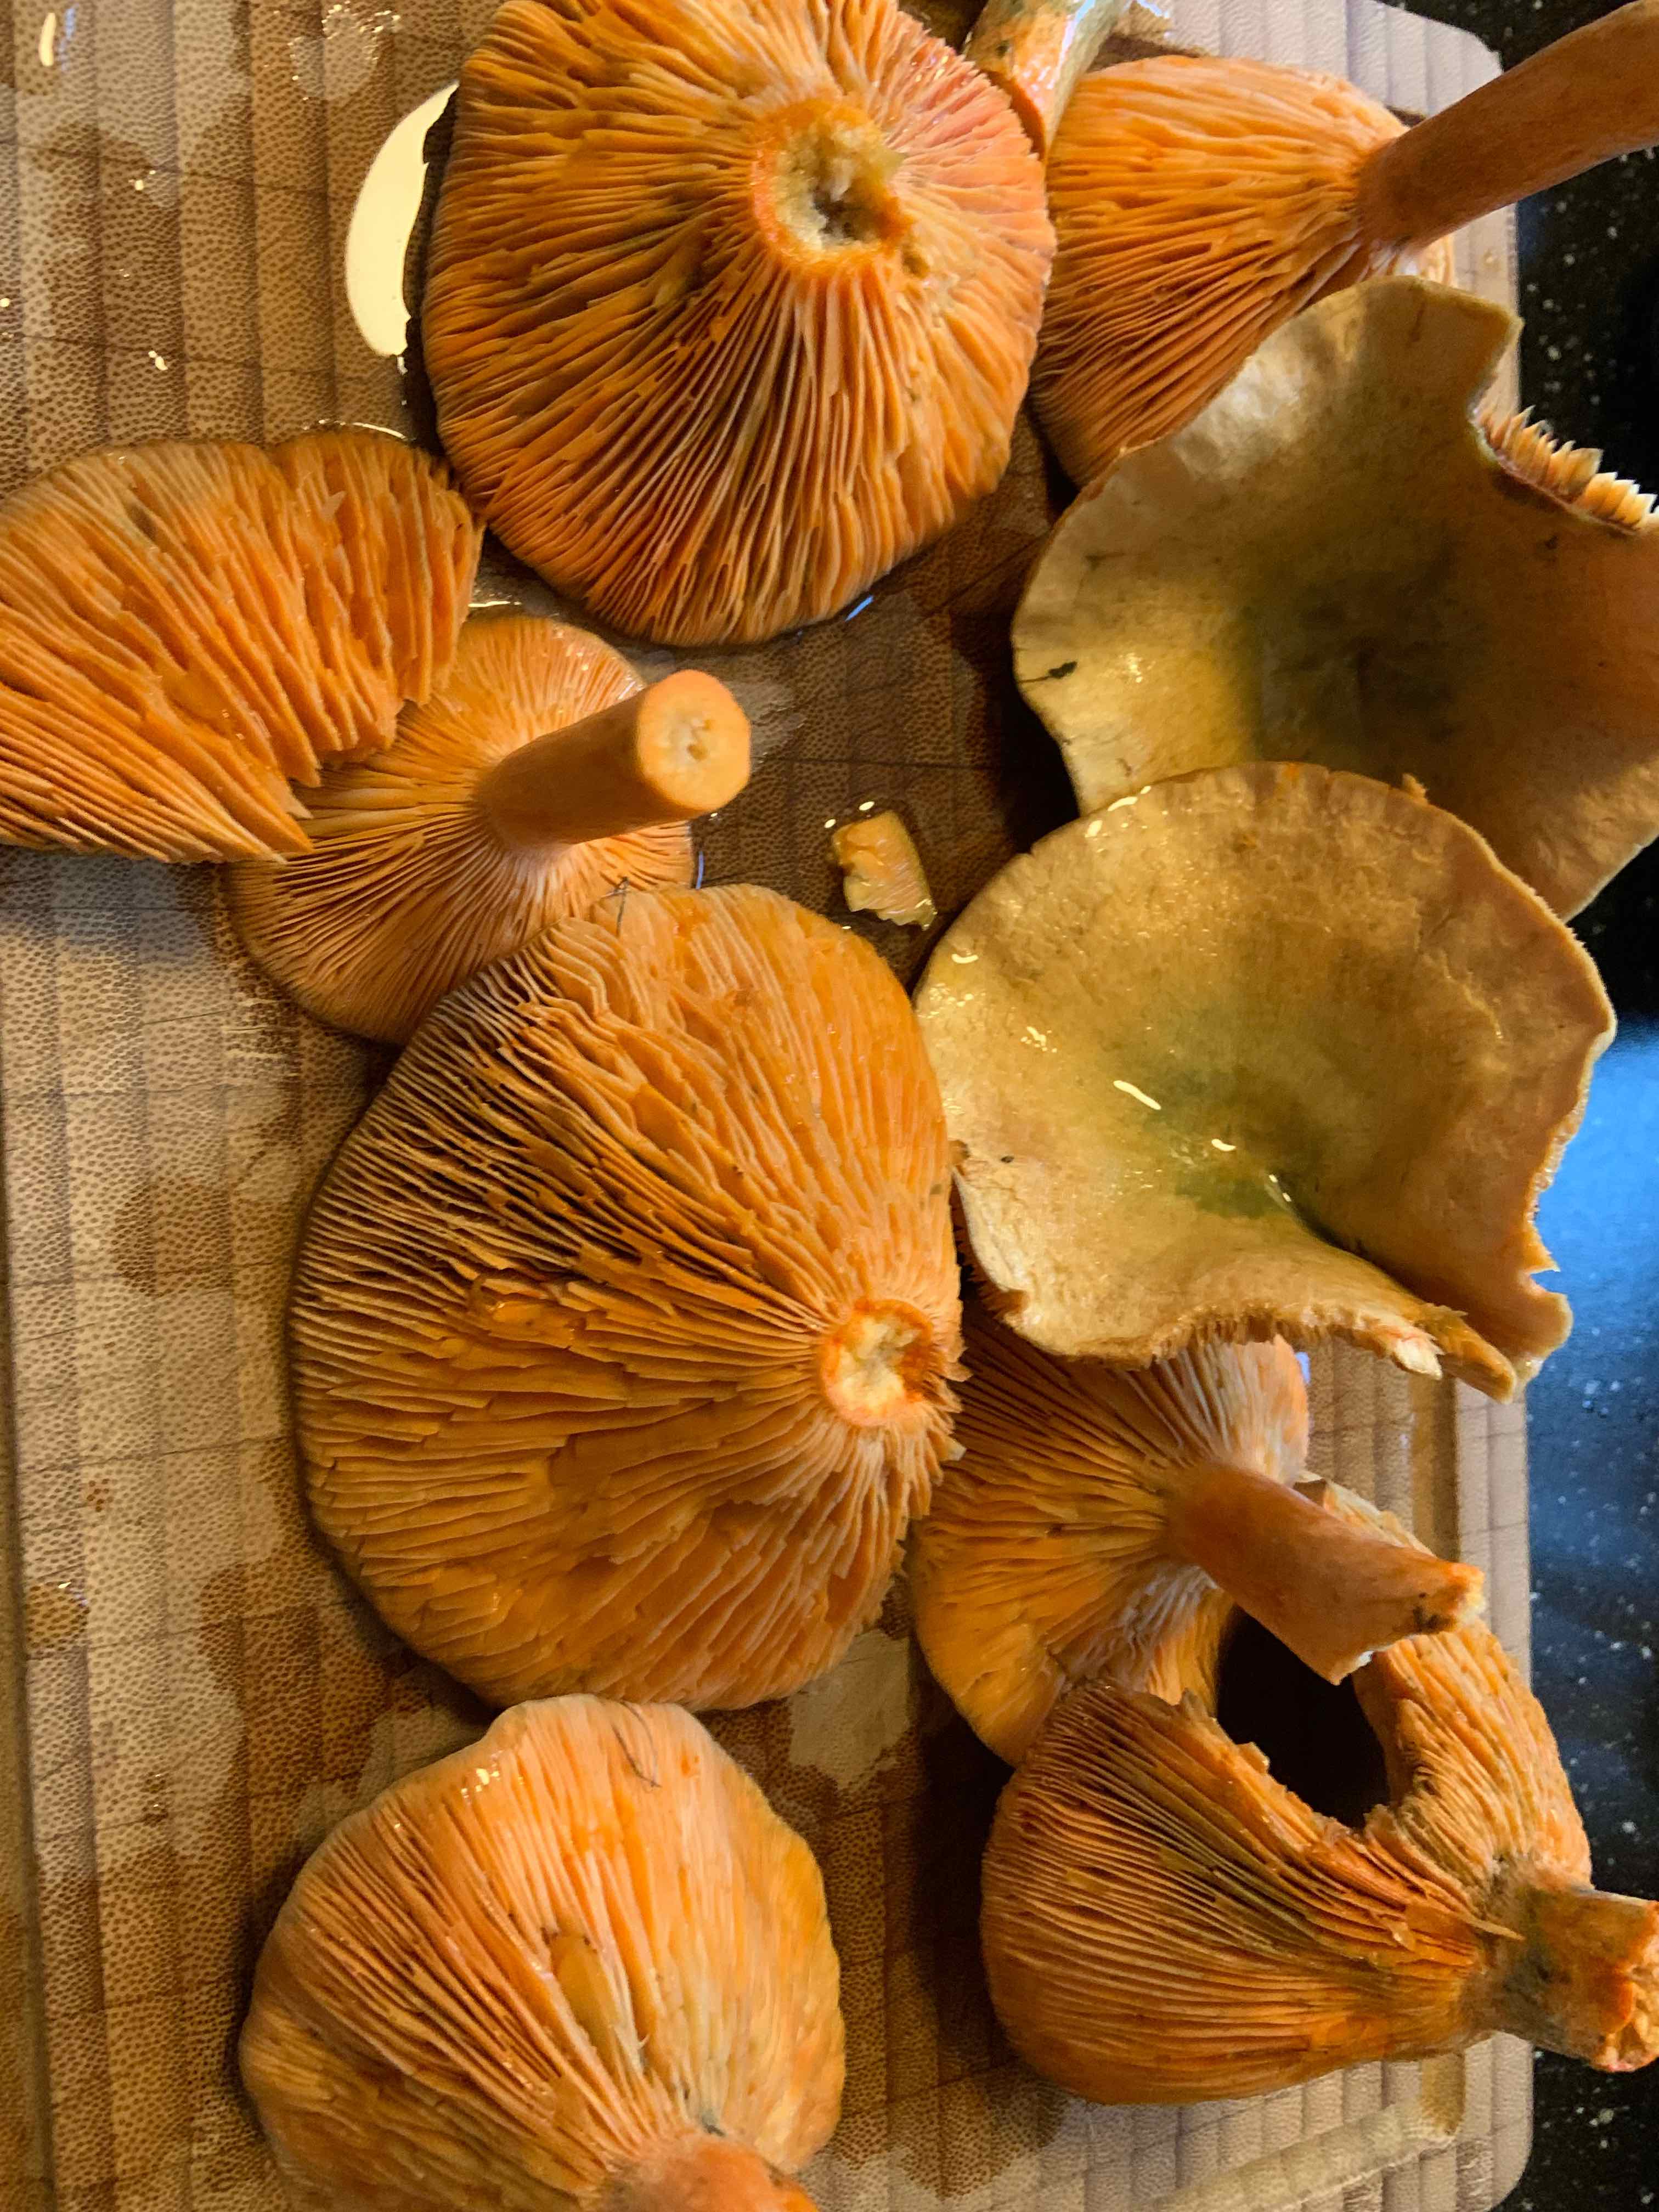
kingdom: Fungi
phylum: Basidiomycota
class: Agaricomycetes
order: Russulales
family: Russulaceae
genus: Lactarius
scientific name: Lactarius deterrimus
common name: gran-mælkehat
